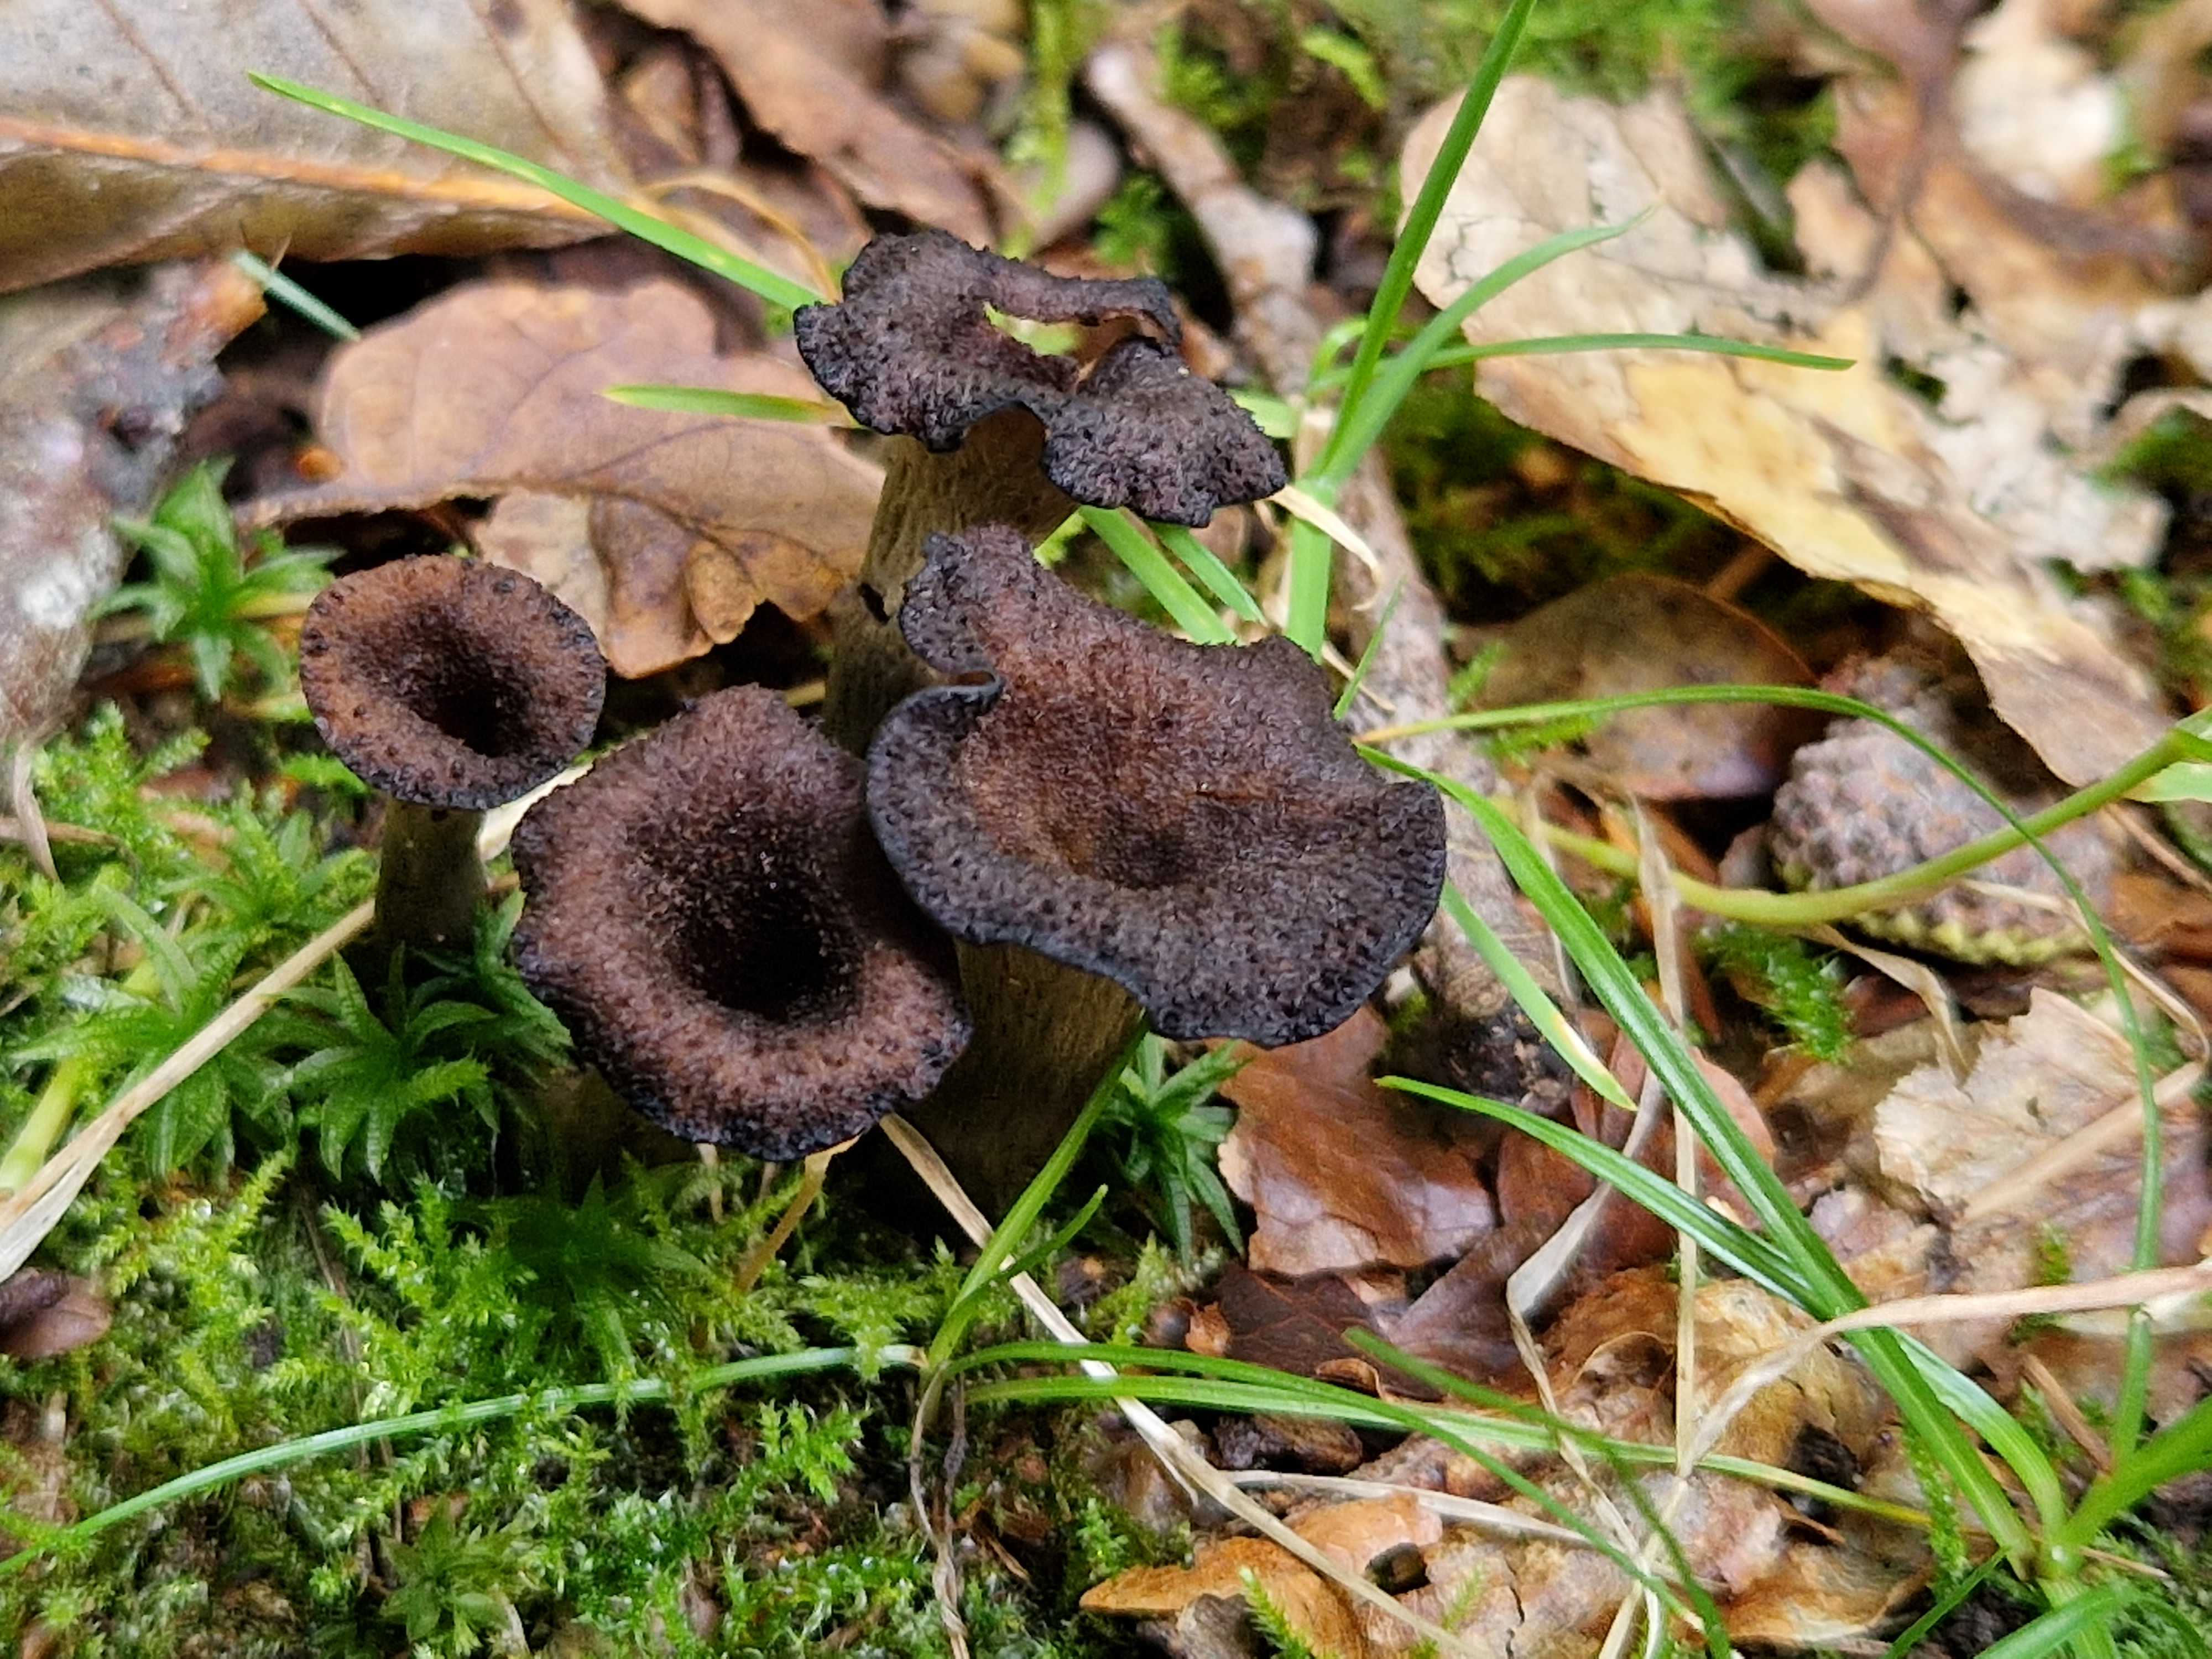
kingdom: Fungi
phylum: Basidiomycota
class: Agaricomycetes
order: Cantharellales
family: Hydnaceae
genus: Craterellus
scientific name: Craterellus cornucopioides
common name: trompetsvamp
